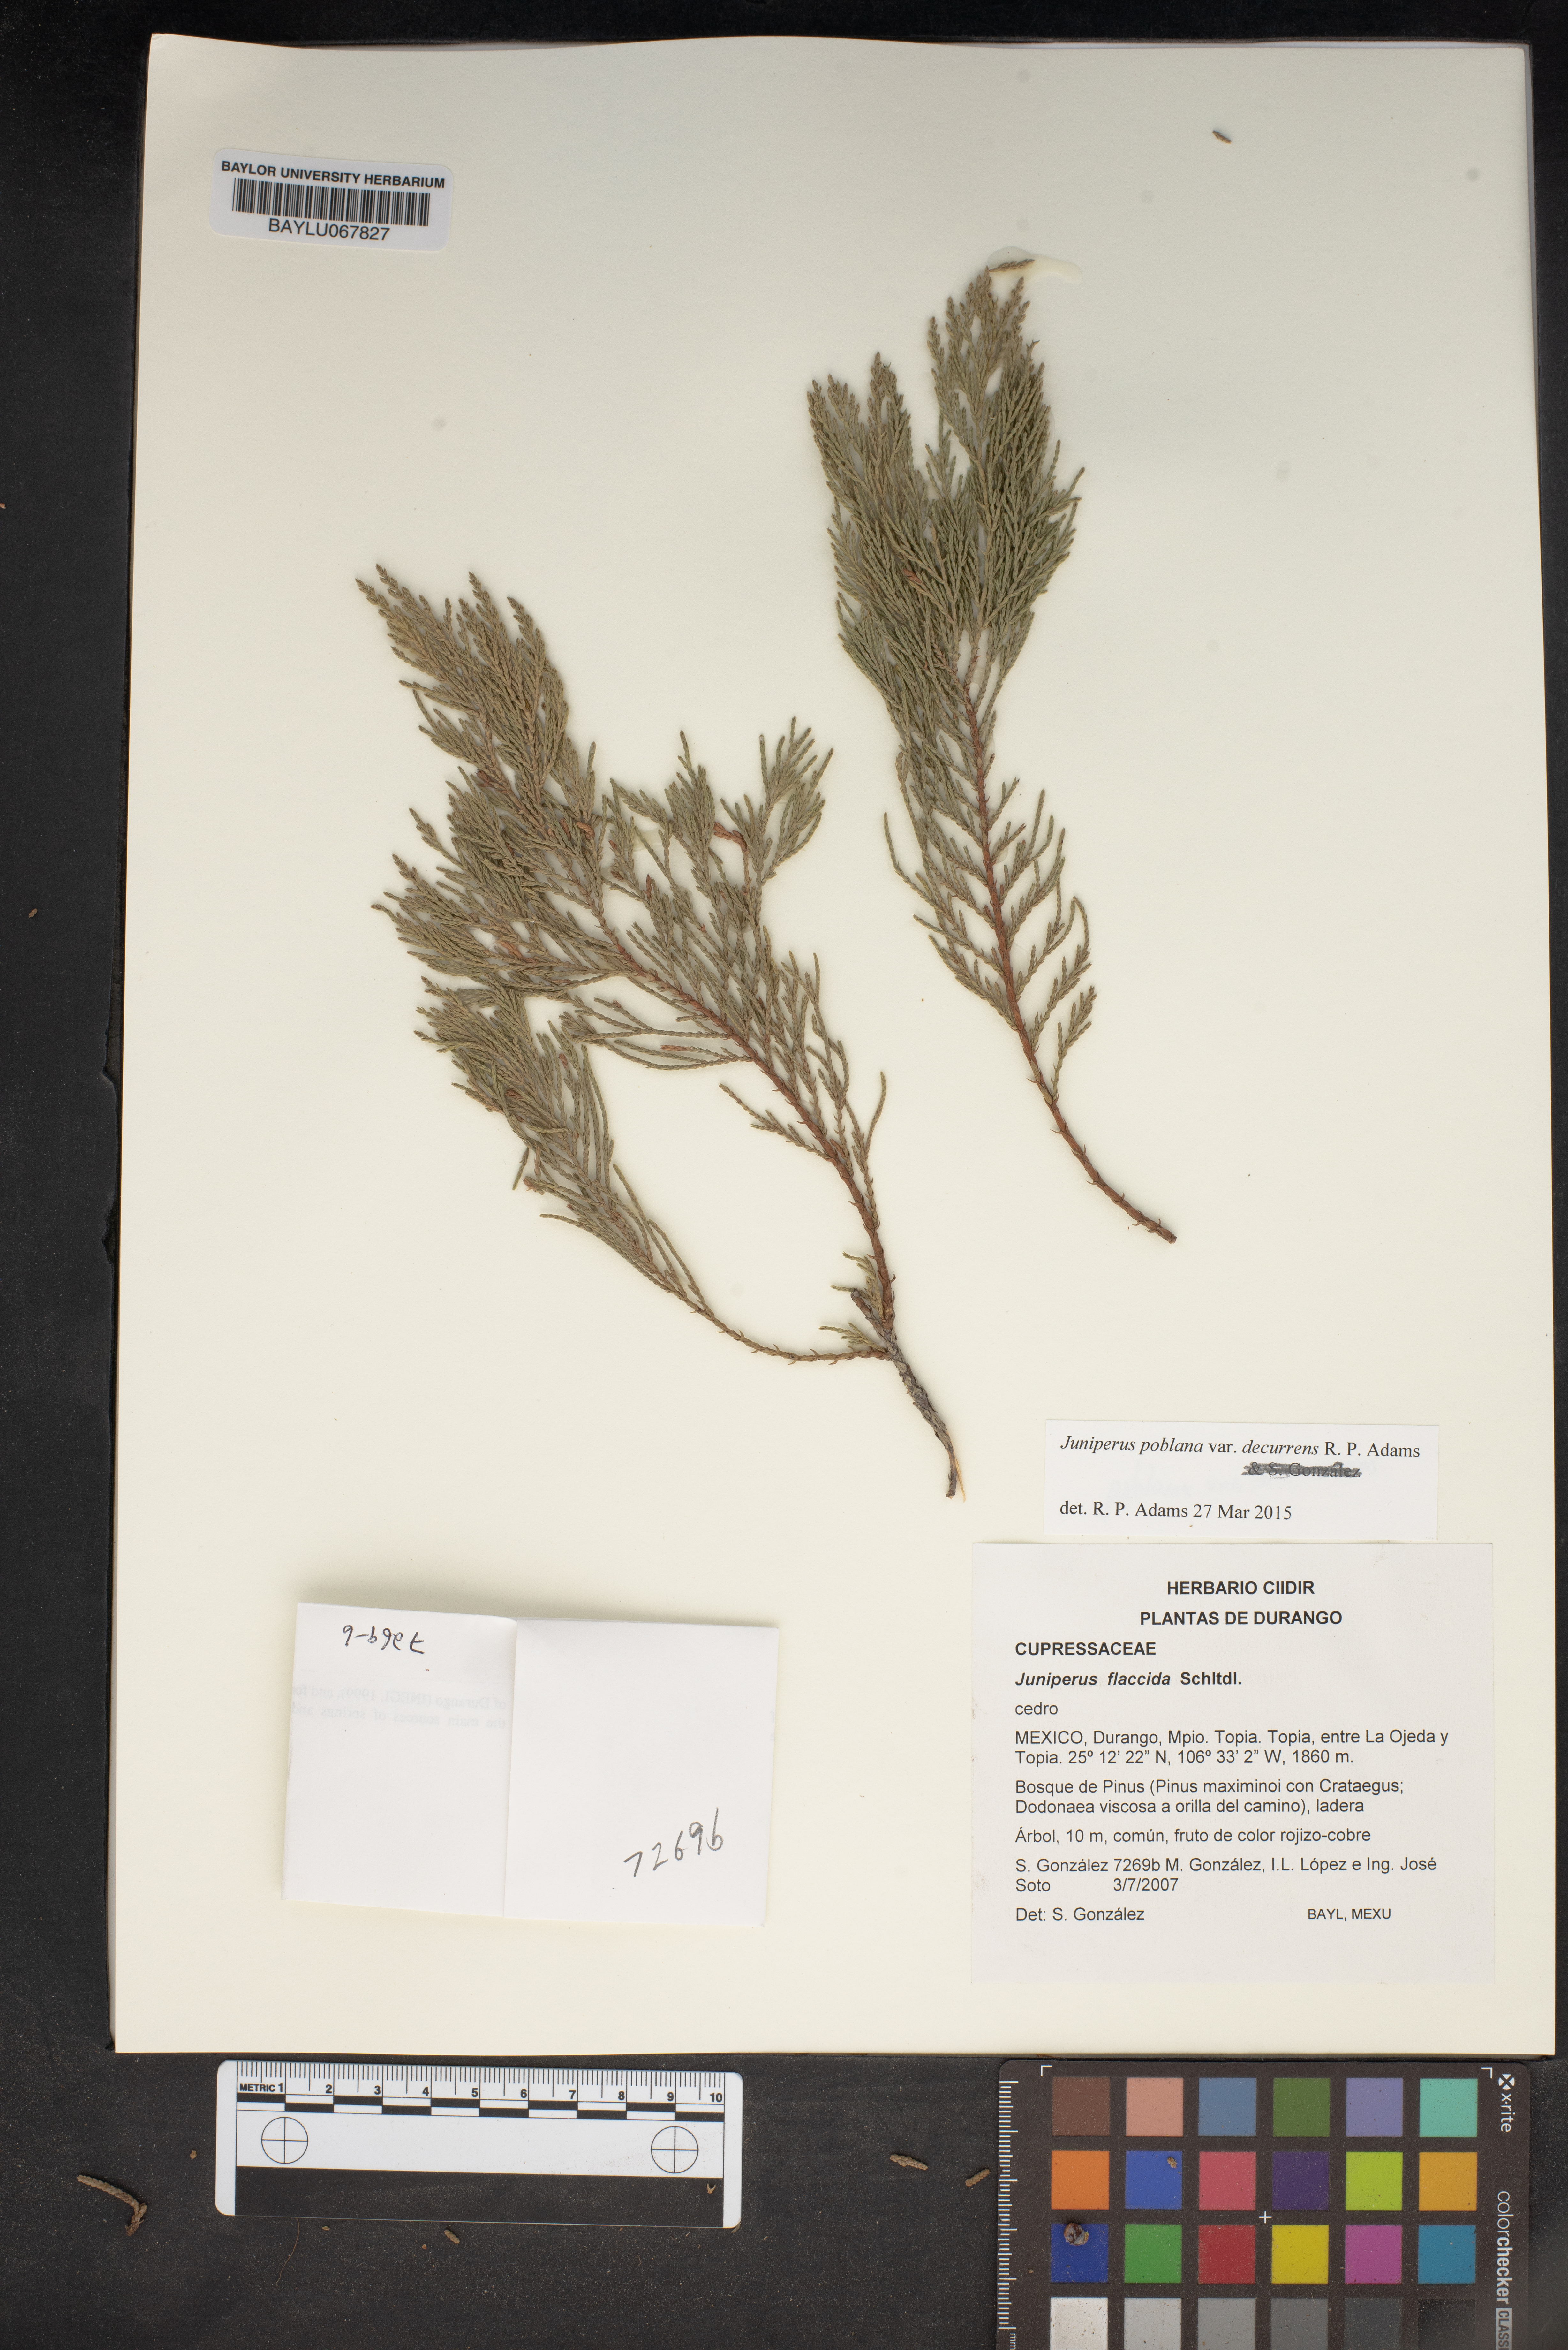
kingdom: Plantae
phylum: Tracheophyta
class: Pinopsida
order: Pinales
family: Cupressaceae
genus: Juniperus
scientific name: Juniperus flaccida
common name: Drooping juniper
